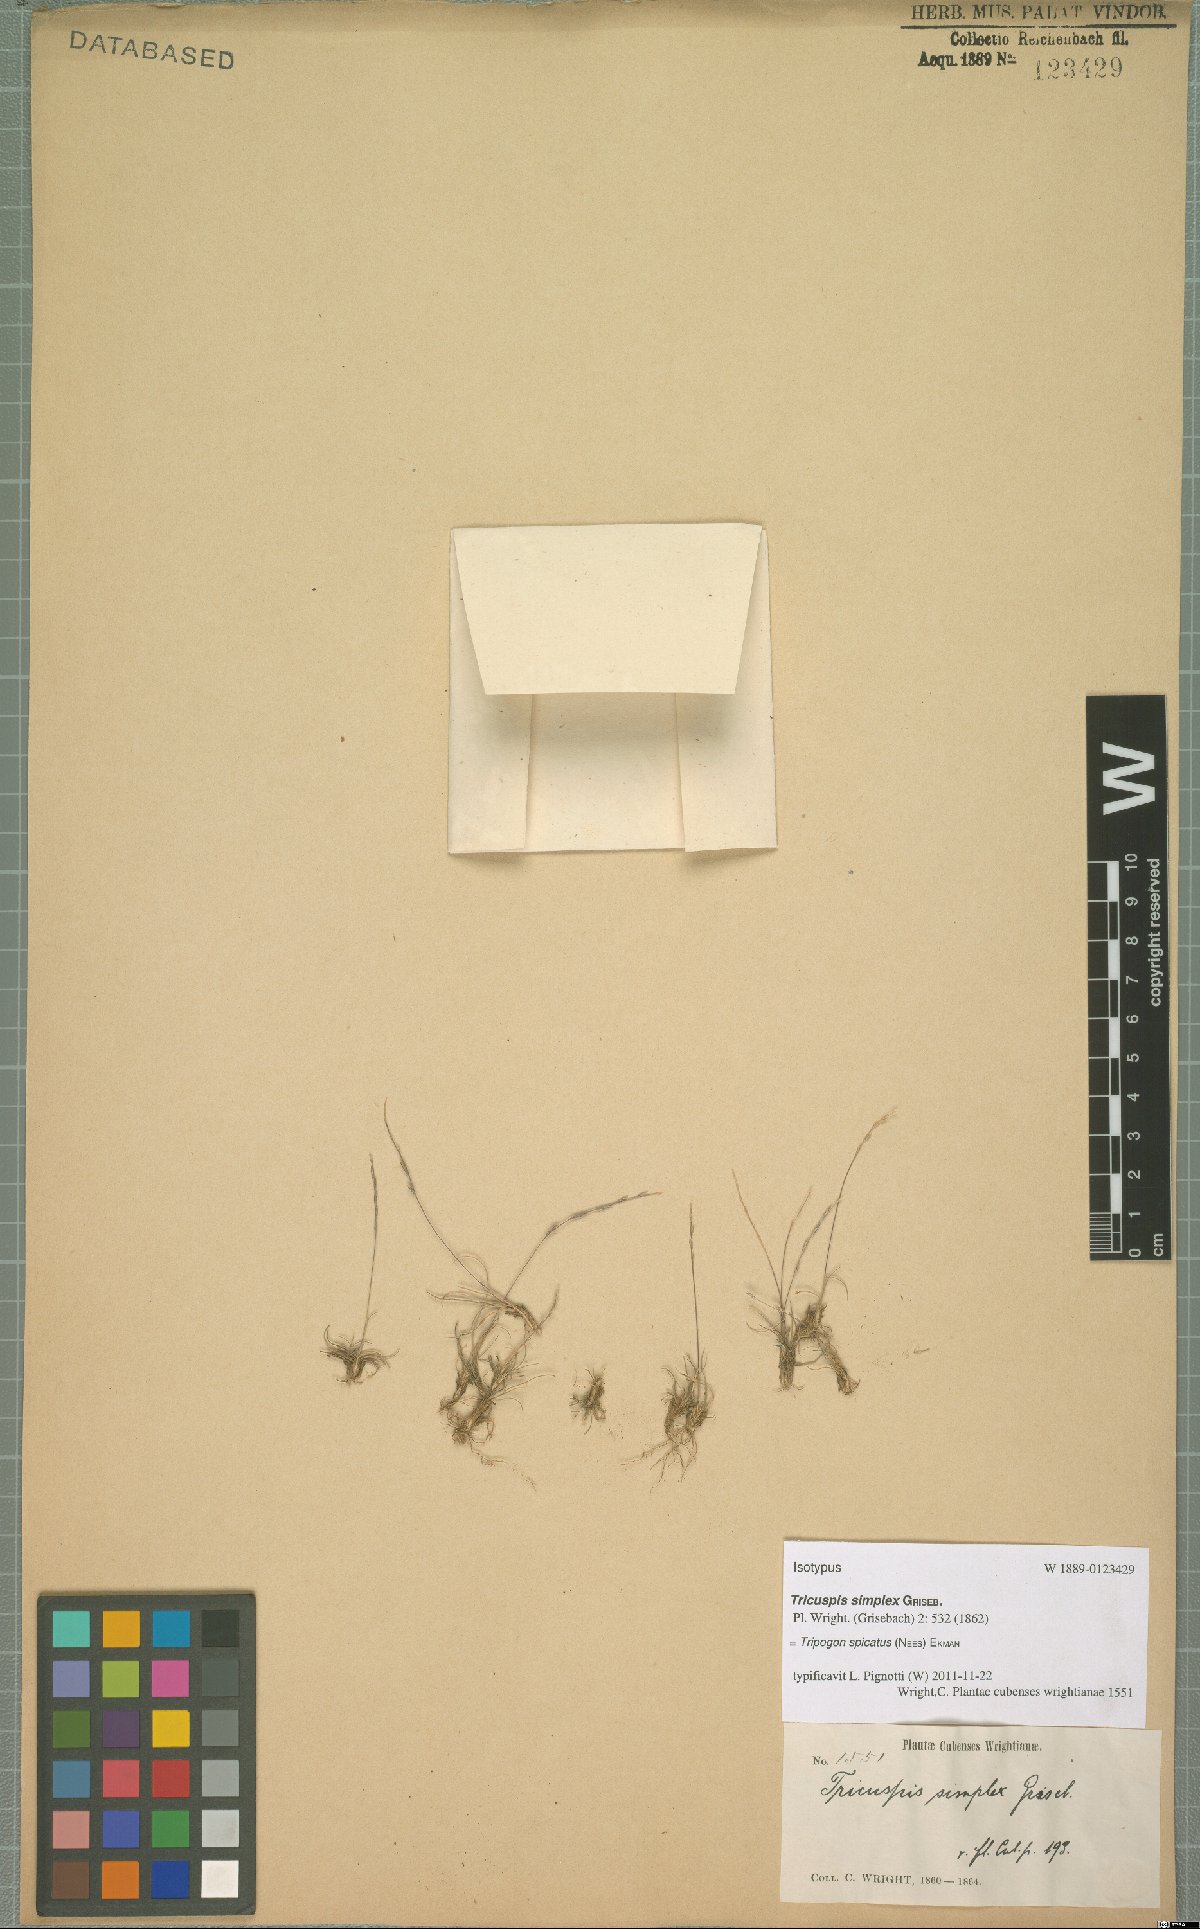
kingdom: Plantae
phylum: Tracheophyta
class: Liliopsida
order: Poales
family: Poaceae
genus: Tripogonella
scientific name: Tripogonella spicata
